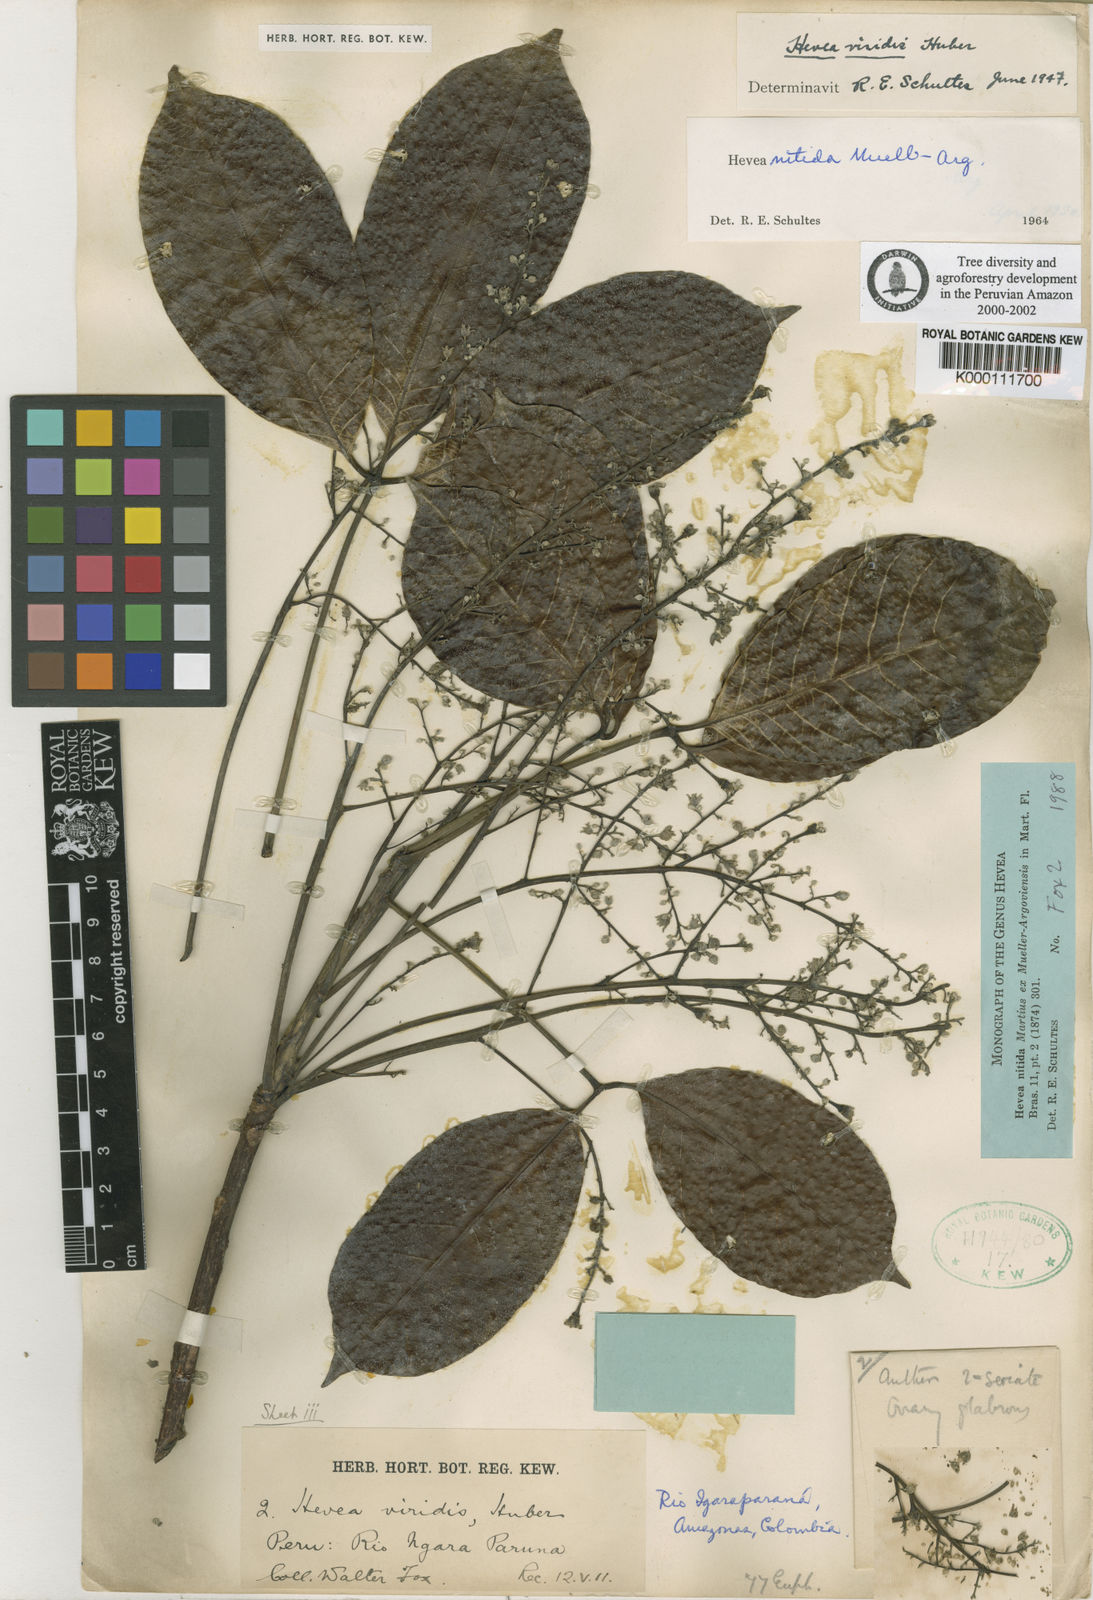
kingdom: Plantae
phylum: Tracheophyta
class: Magnoliopsida
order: Malpighiales
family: Euphorbiaceae
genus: Hevea
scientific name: Hevea nitida
